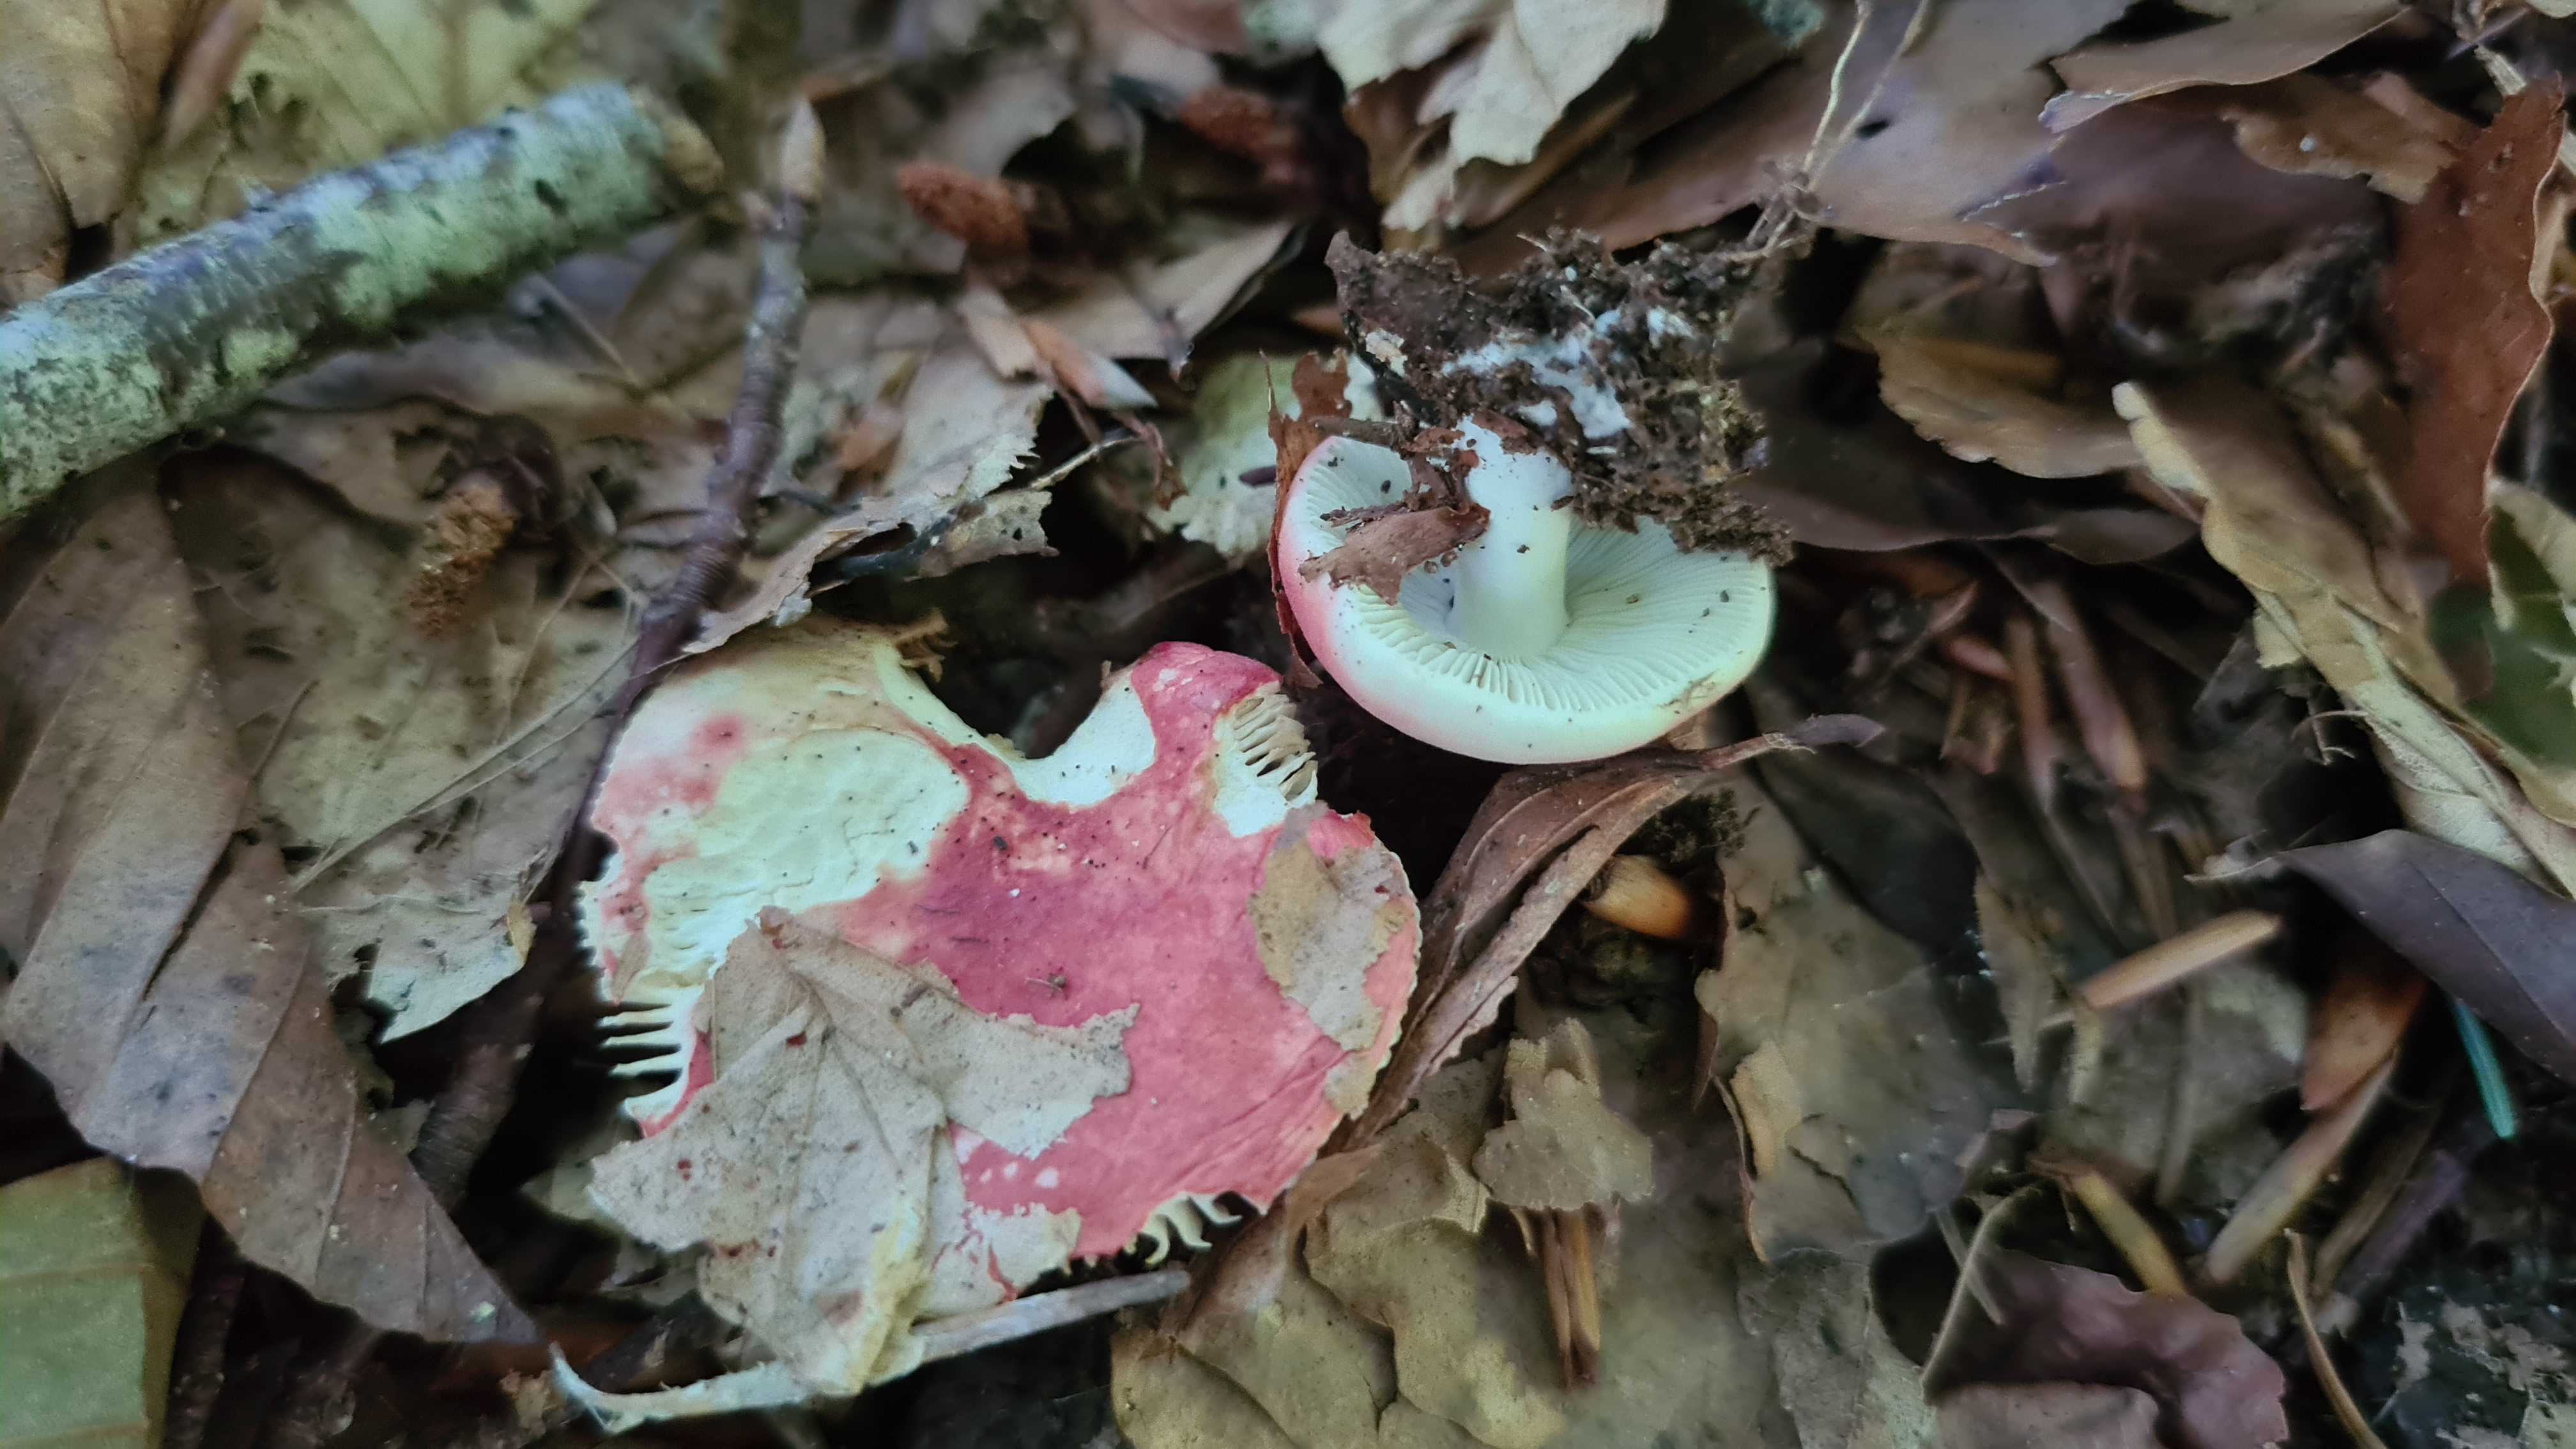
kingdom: Fungi
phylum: Basidiomycota
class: Agaricomycetes
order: Russulales
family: Russulaceae
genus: Russula
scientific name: Russula nobilis
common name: lille gift-skørhat
